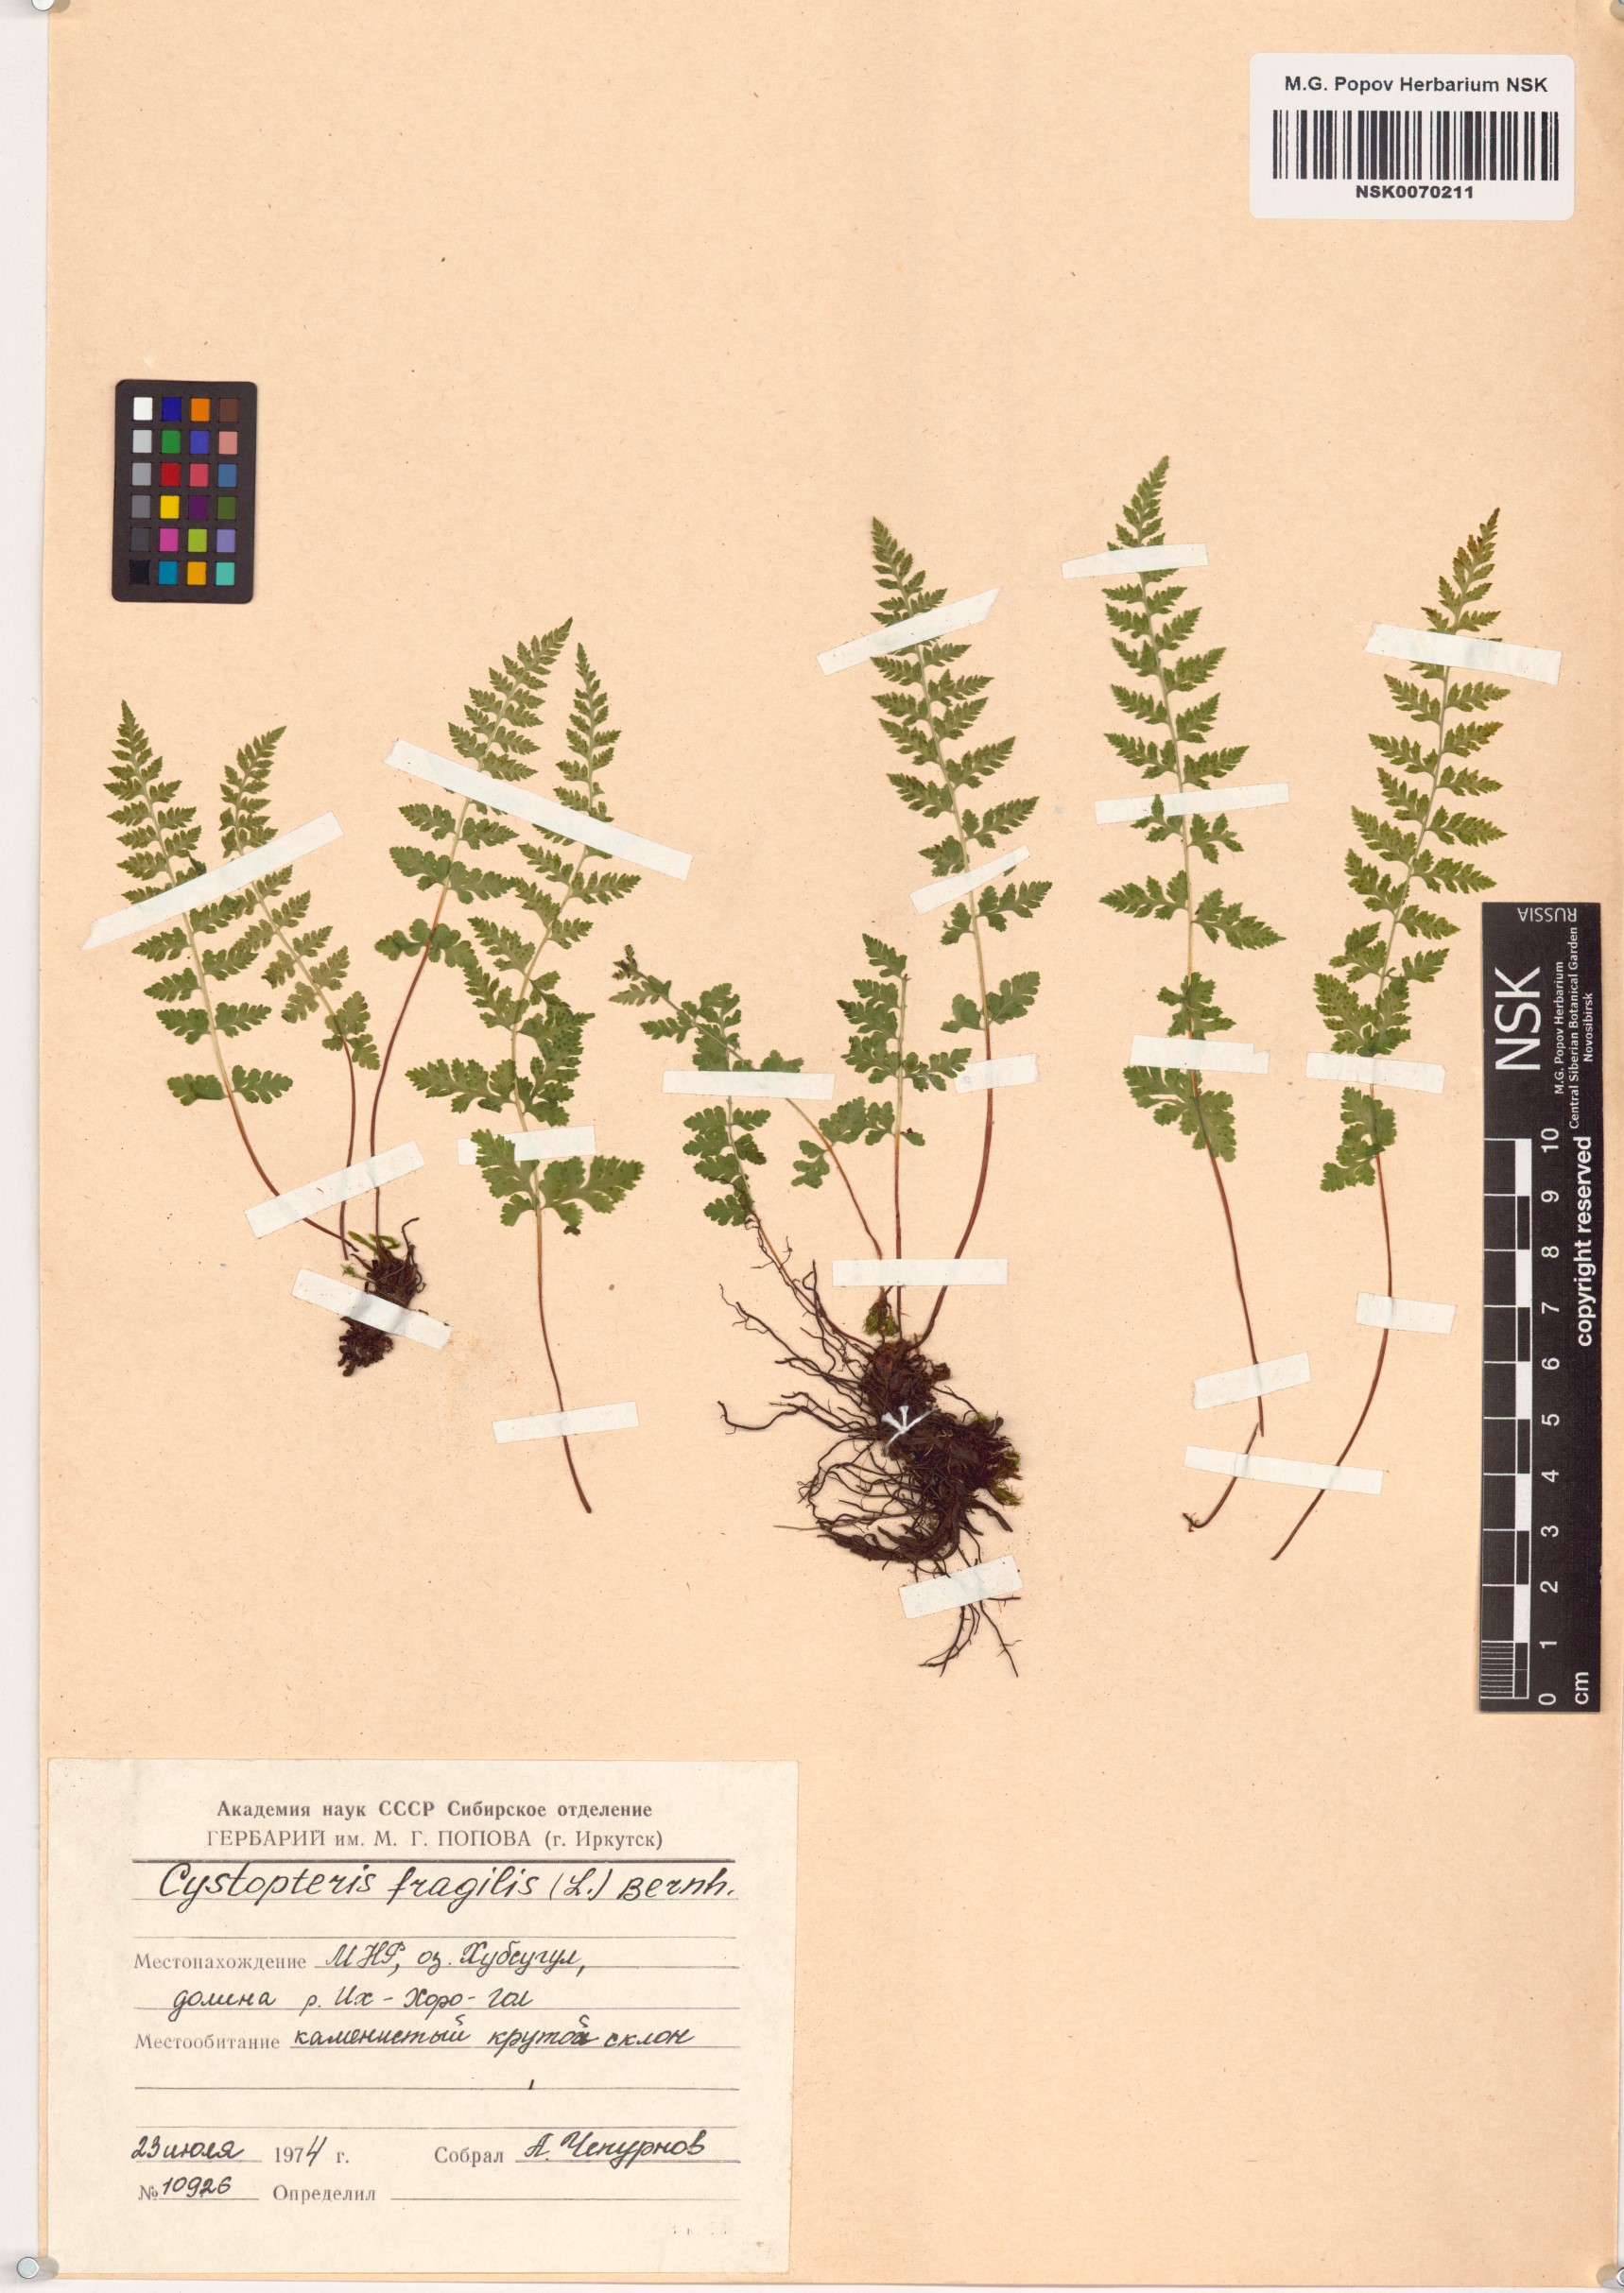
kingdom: Plantae
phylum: Tracheophyta
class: Polypodiopsida
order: Polypodiales
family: Cystopteridaceae
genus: Cystopteris
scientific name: Cystopteris fragilis
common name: Brittle bladder fern
